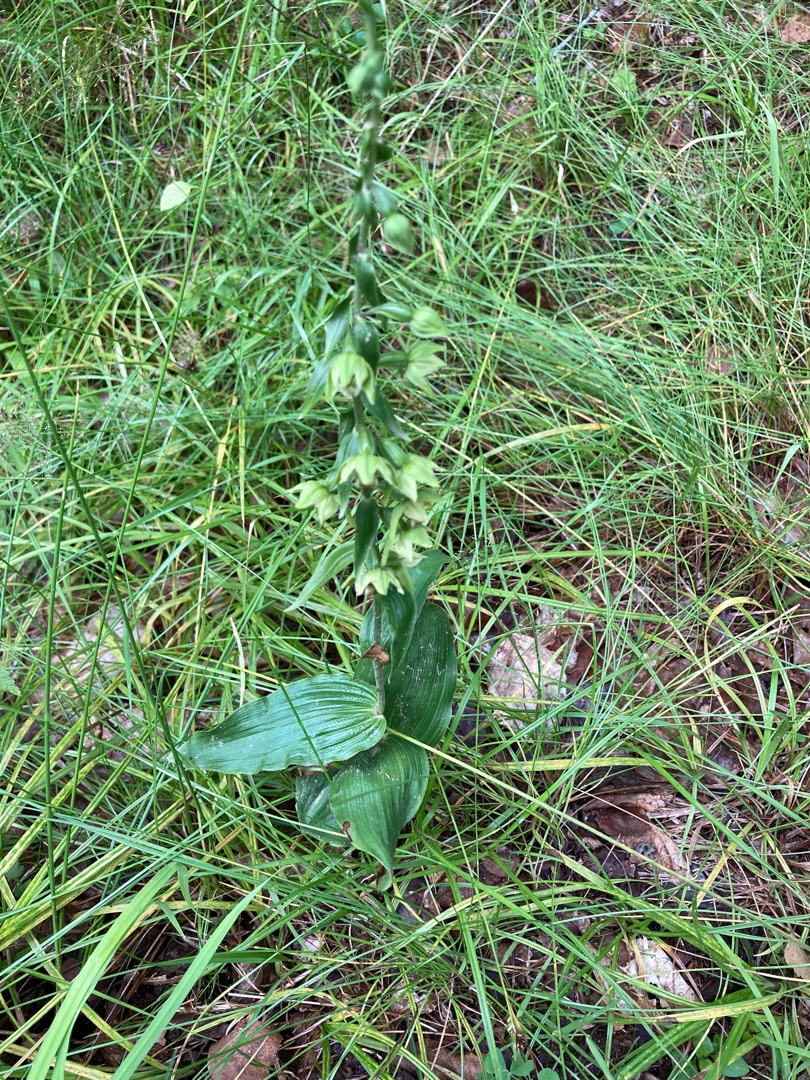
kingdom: Plantae
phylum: Tracheophyta
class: Liliopsida
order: Asparagales
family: Orchidaceae
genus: Epipactis
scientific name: Epipactis helleborine
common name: Skov-hullæbe (underart)
